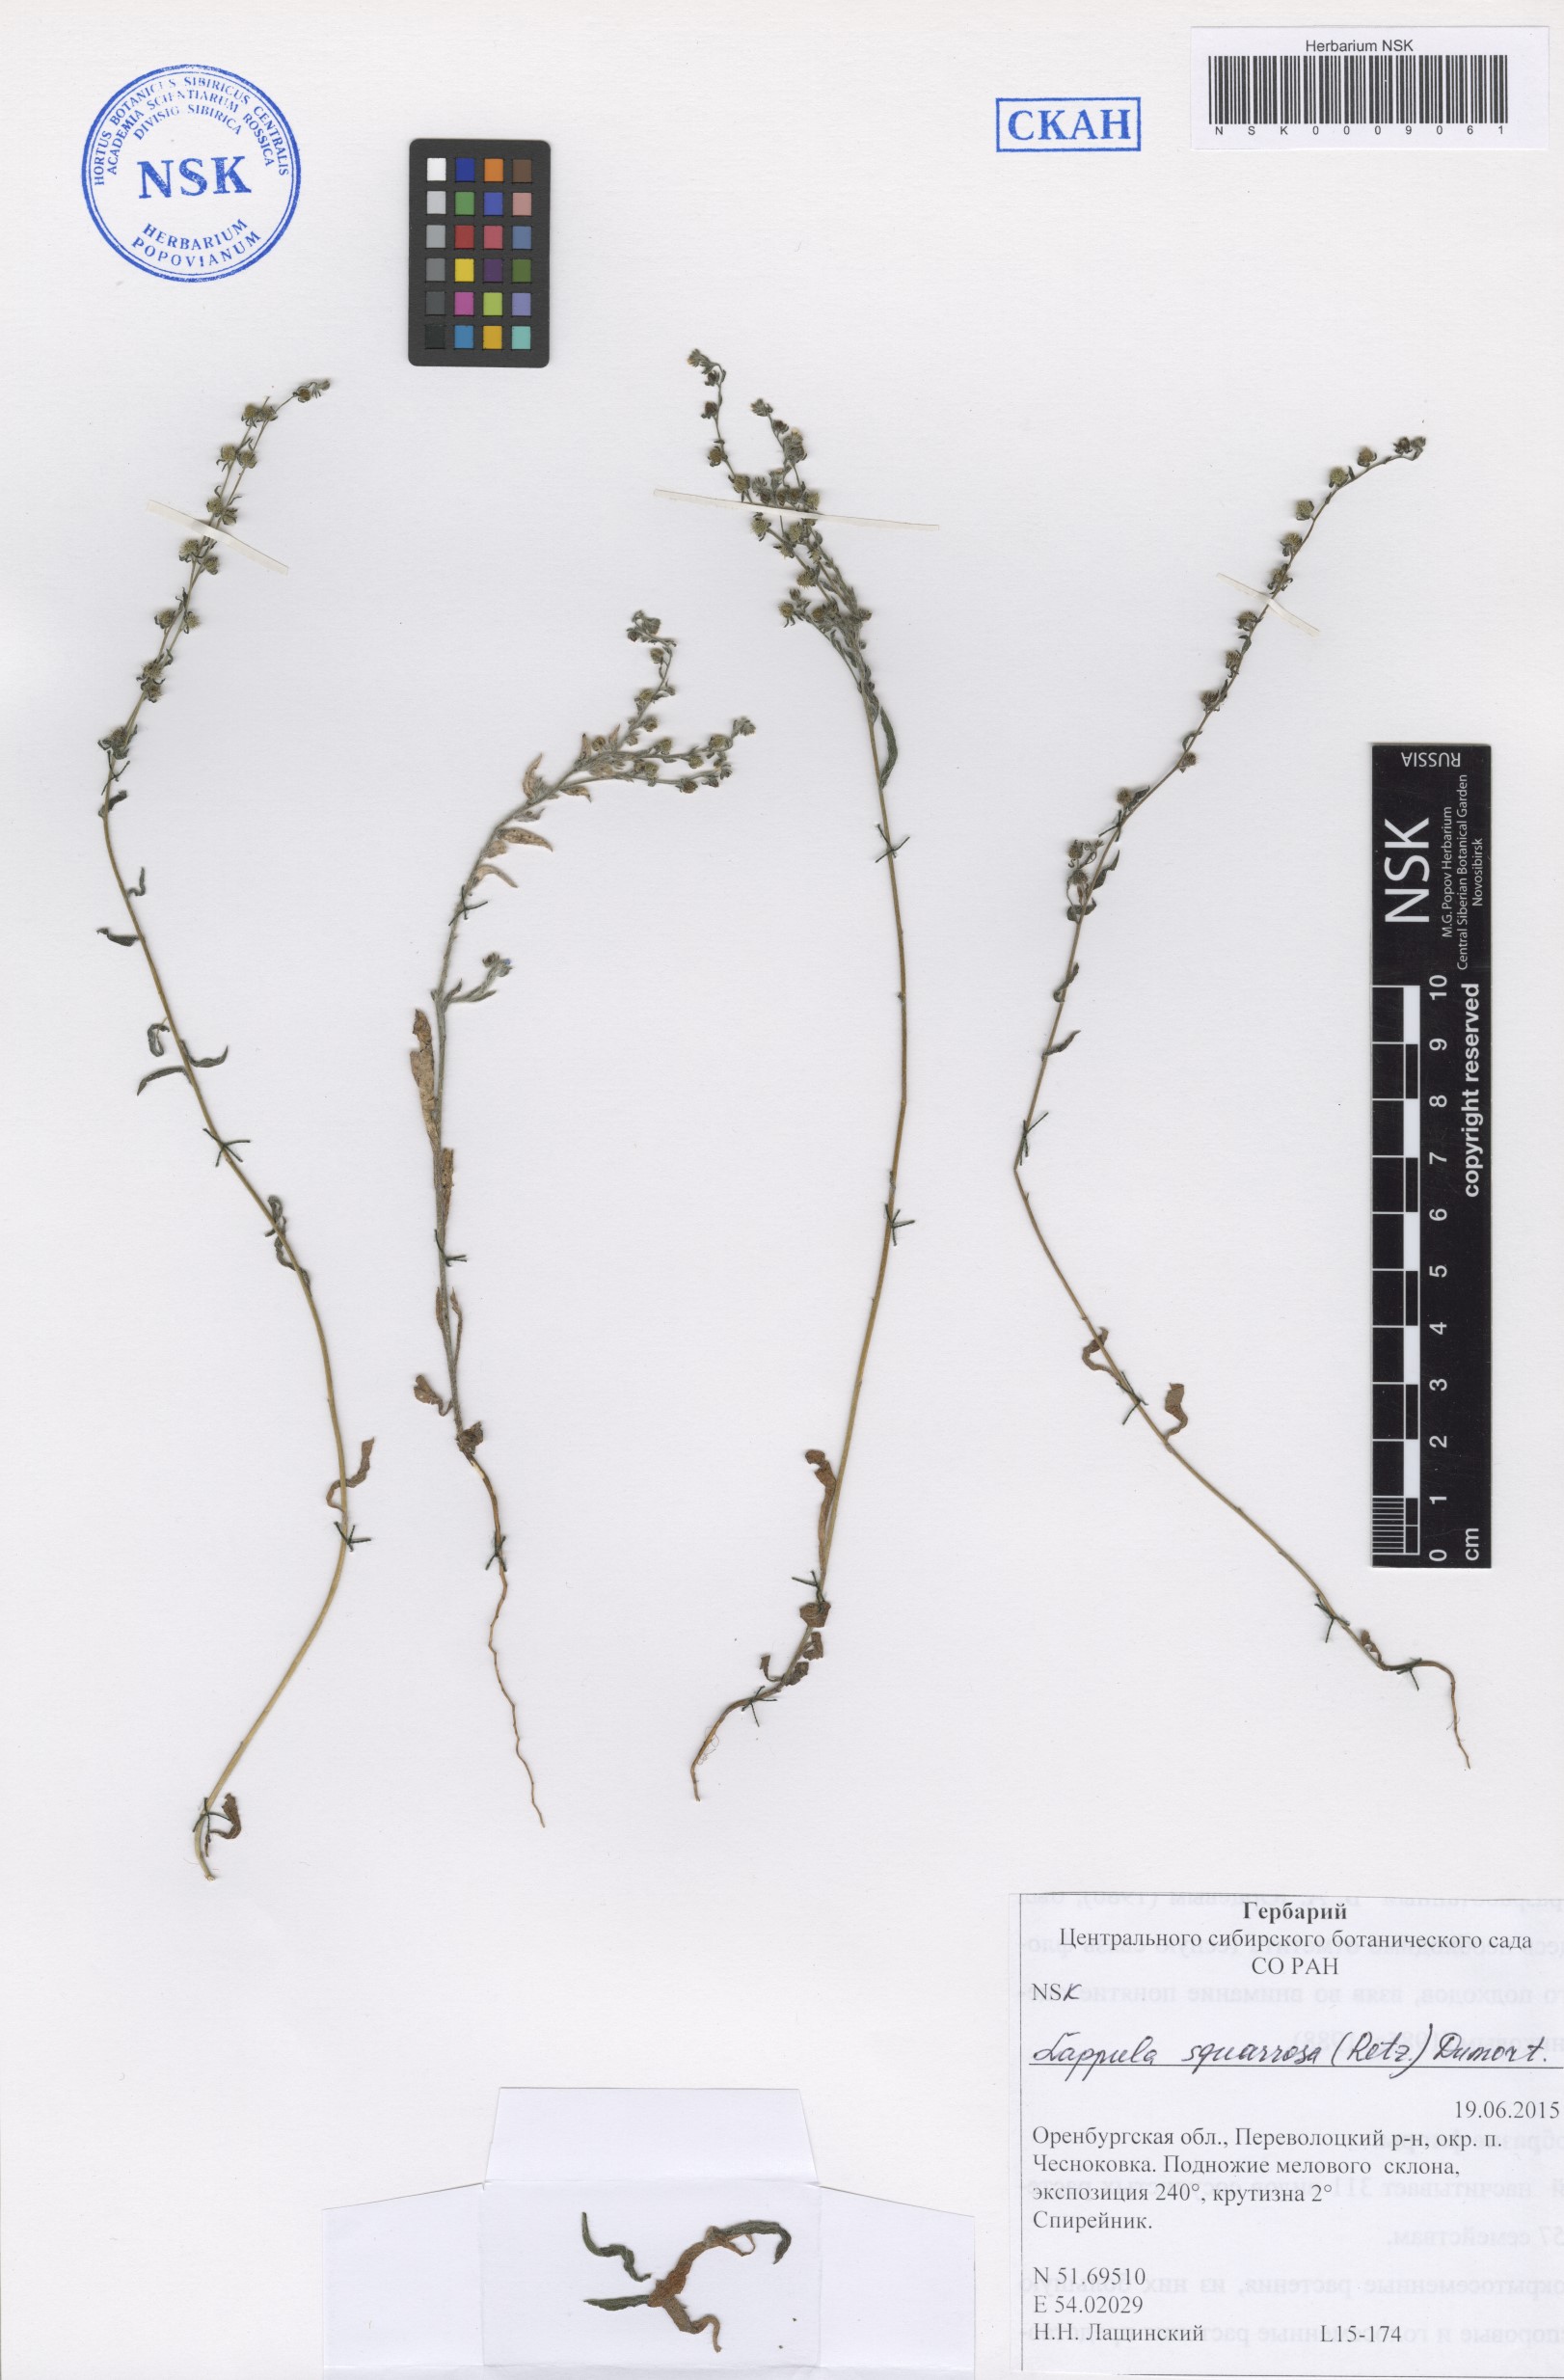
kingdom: Plantae
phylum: Tracheophyta
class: Magnoliopsida
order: Boraginales
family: Boraginaceae
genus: Lappula
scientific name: Lappula squarrosa
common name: European stickseed
